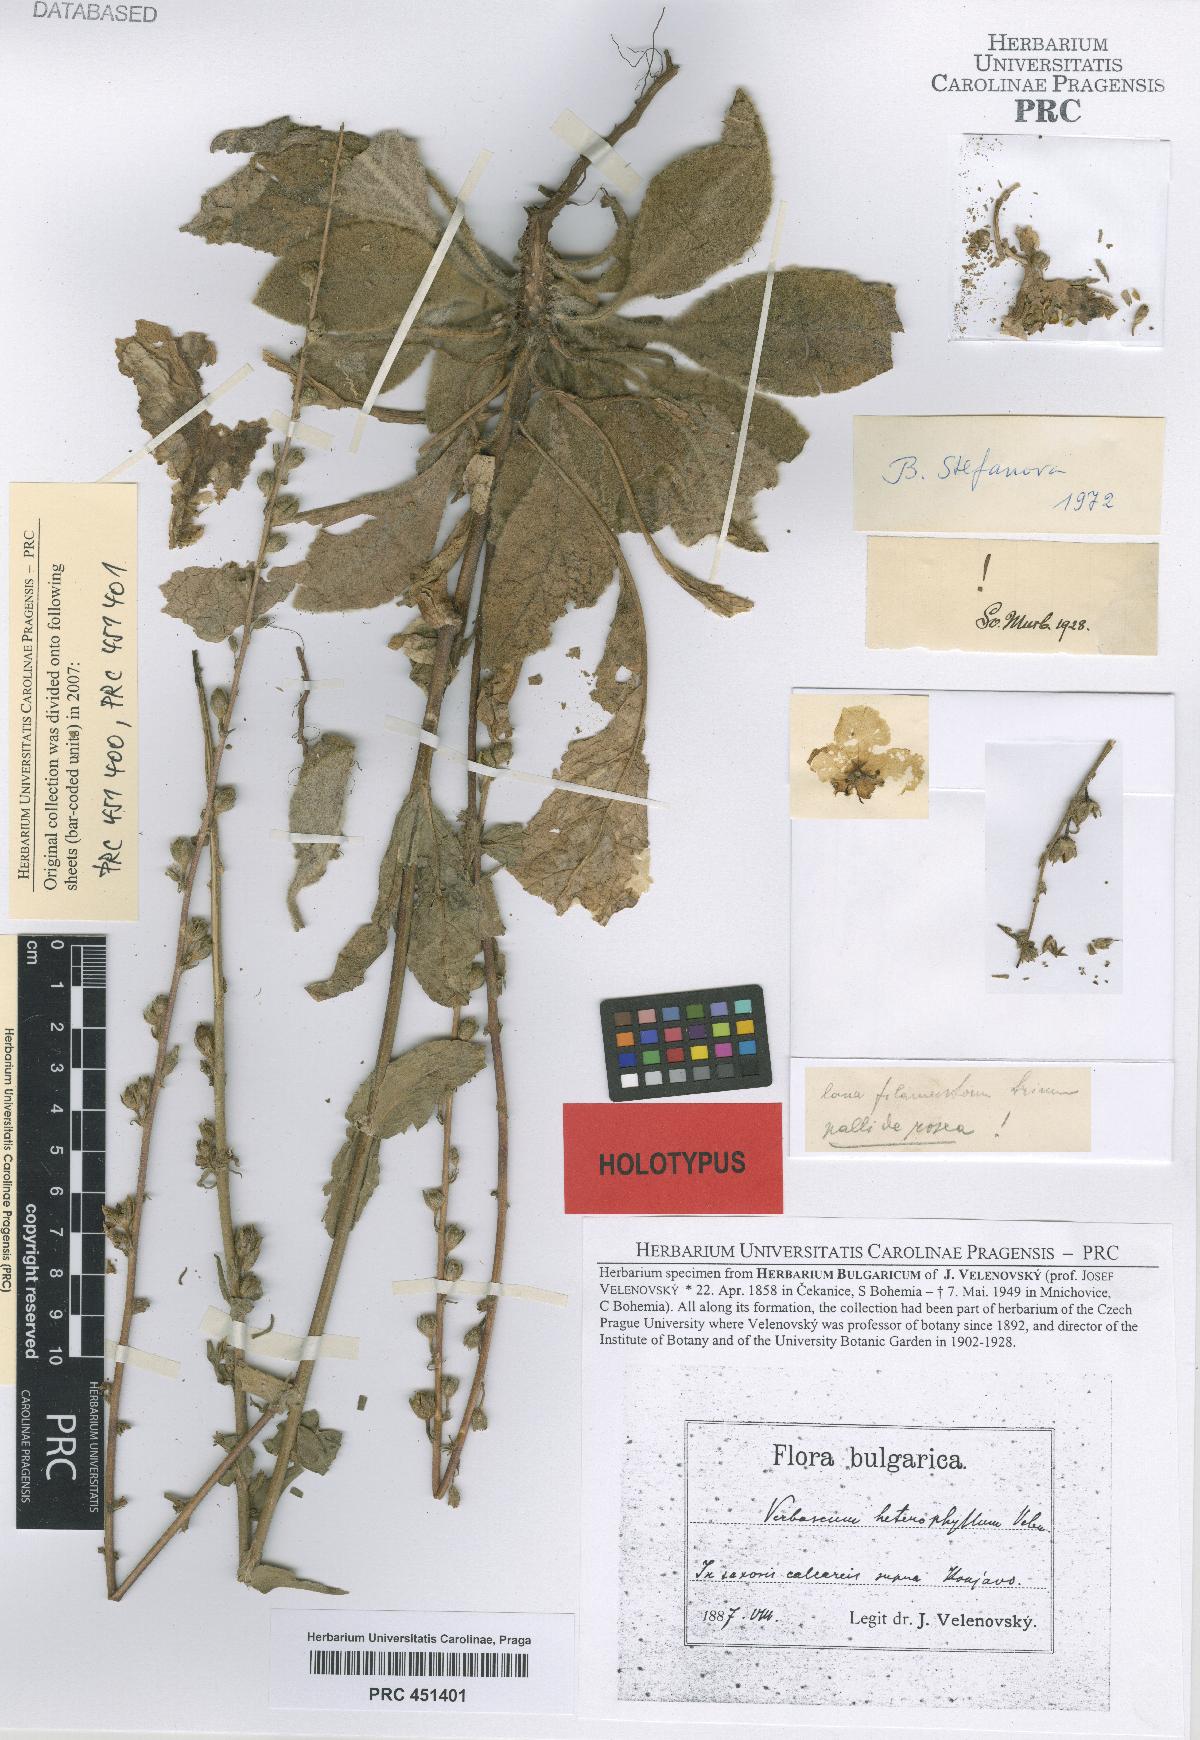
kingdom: Plantae
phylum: Tracheophyta
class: Magnoliopsida
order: Lamiales
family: Scrophulariaceae
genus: Verbascum
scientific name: Verbascum anisophyllum
